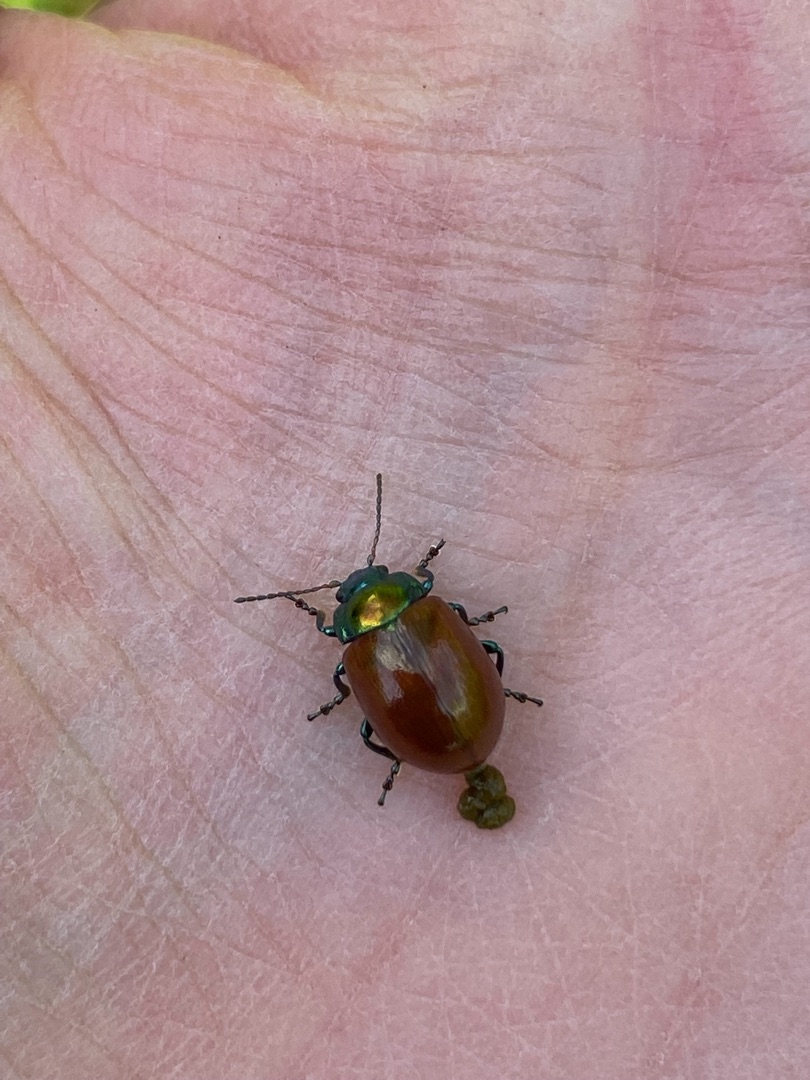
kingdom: Animalia
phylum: Arthropoda
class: Insecta
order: Coleoptera
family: Chrysomelidae
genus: Chrysomela
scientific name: Chrysomela polita
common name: Forskelligfarvet guldbille
